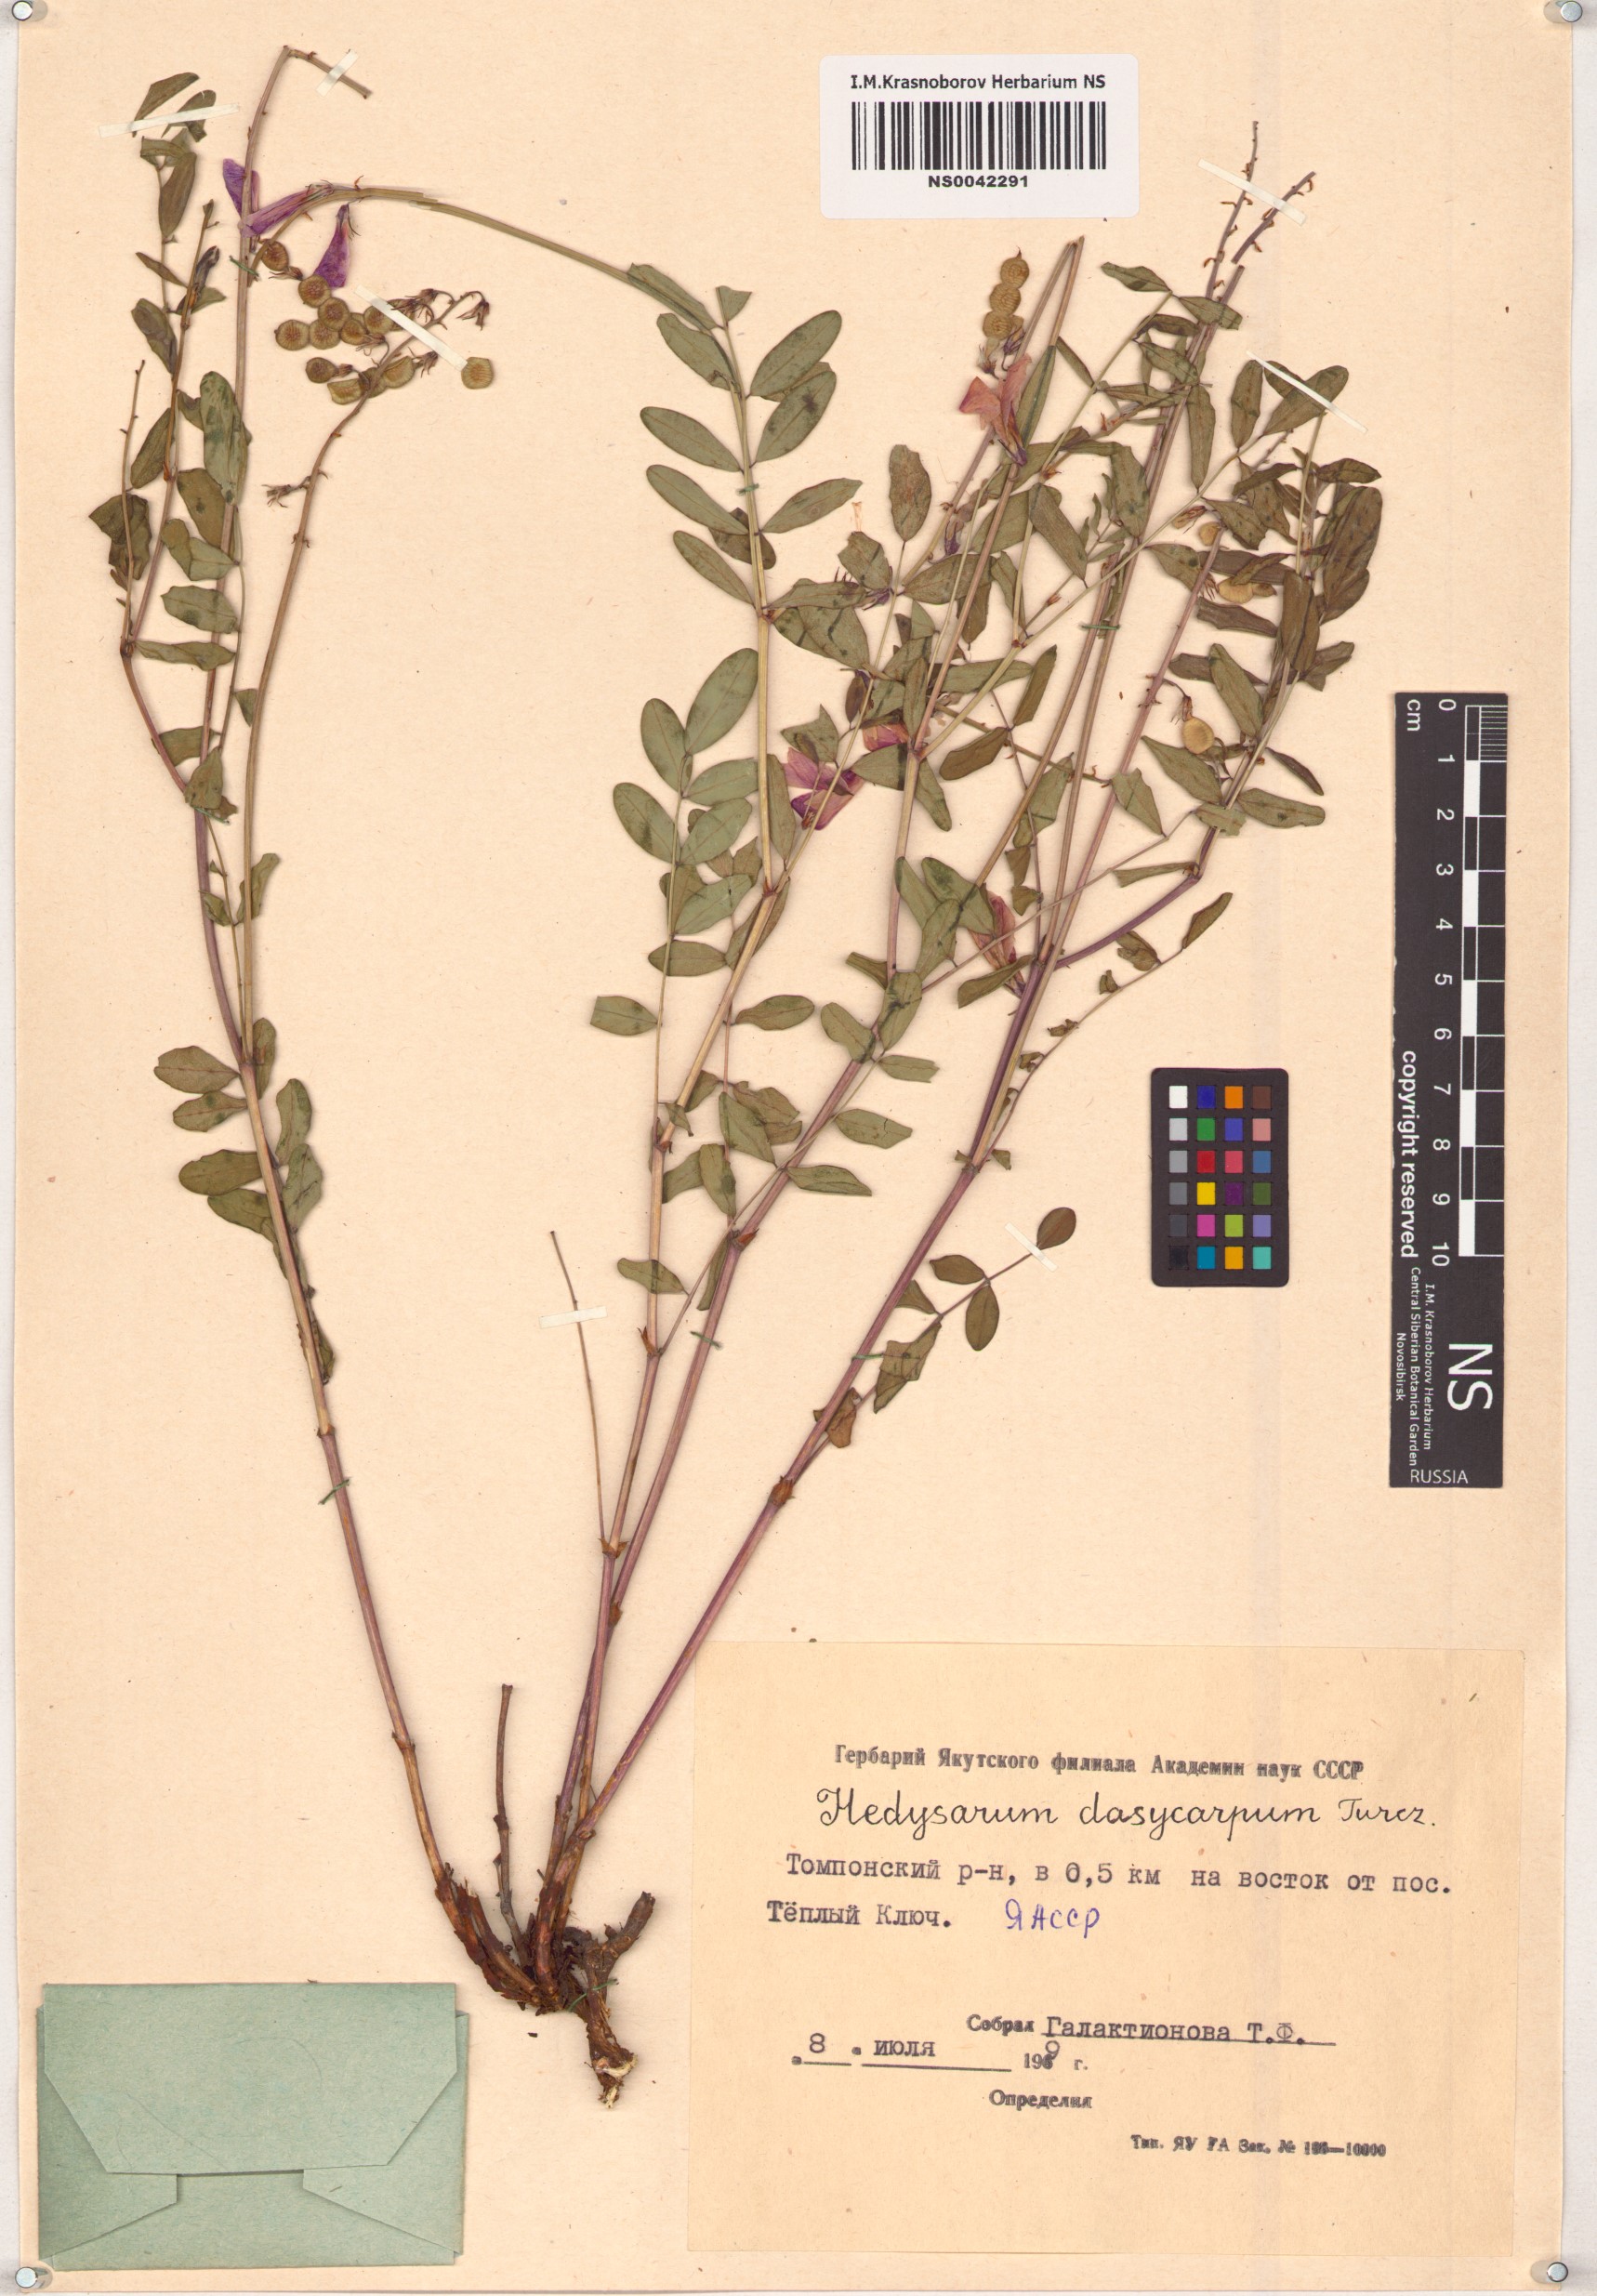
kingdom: Plantae
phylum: Tracheophyta
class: Magnoliopsida
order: Fabales
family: Fabaceae
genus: Hedysarum
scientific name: Hedysarum dasycarpum
